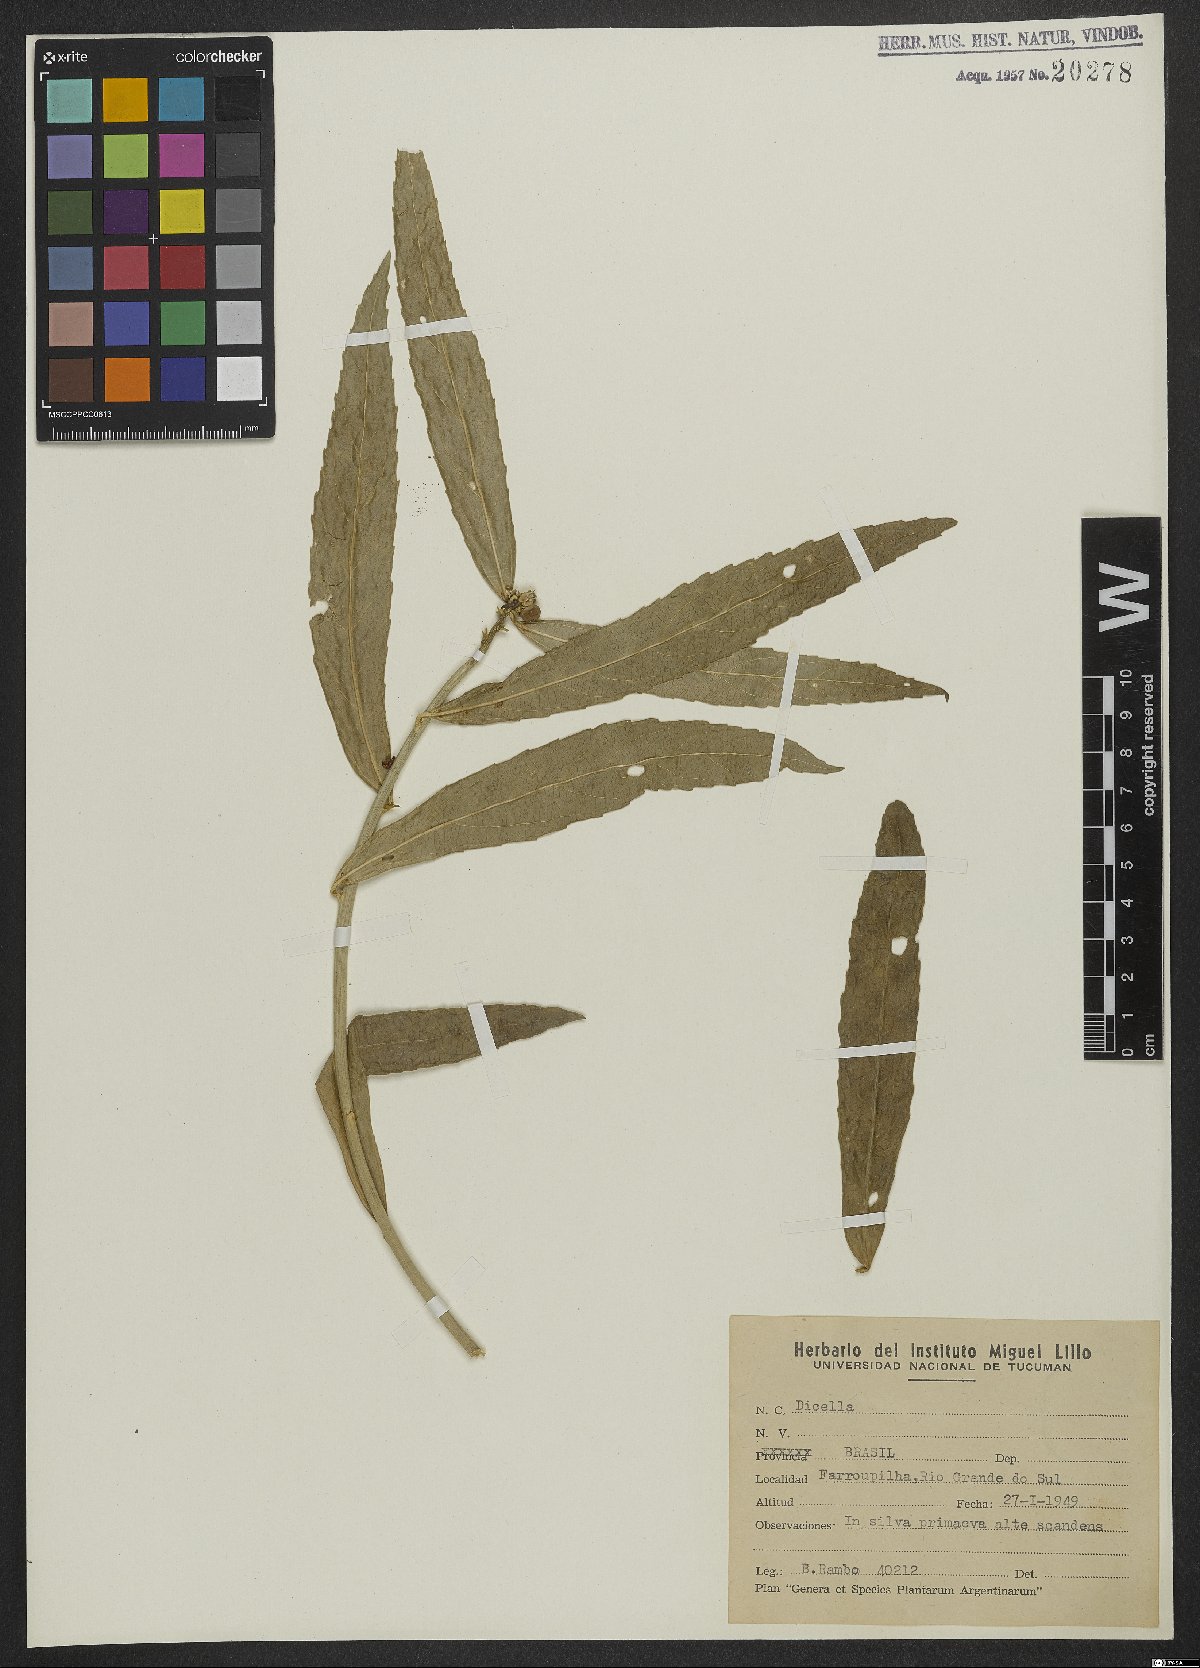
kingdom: Plantae
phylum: Tracheophyta
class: Magnoliopsida
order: Malpighiales
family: Malpighiaceae
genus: Dicella
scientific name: Dicella
